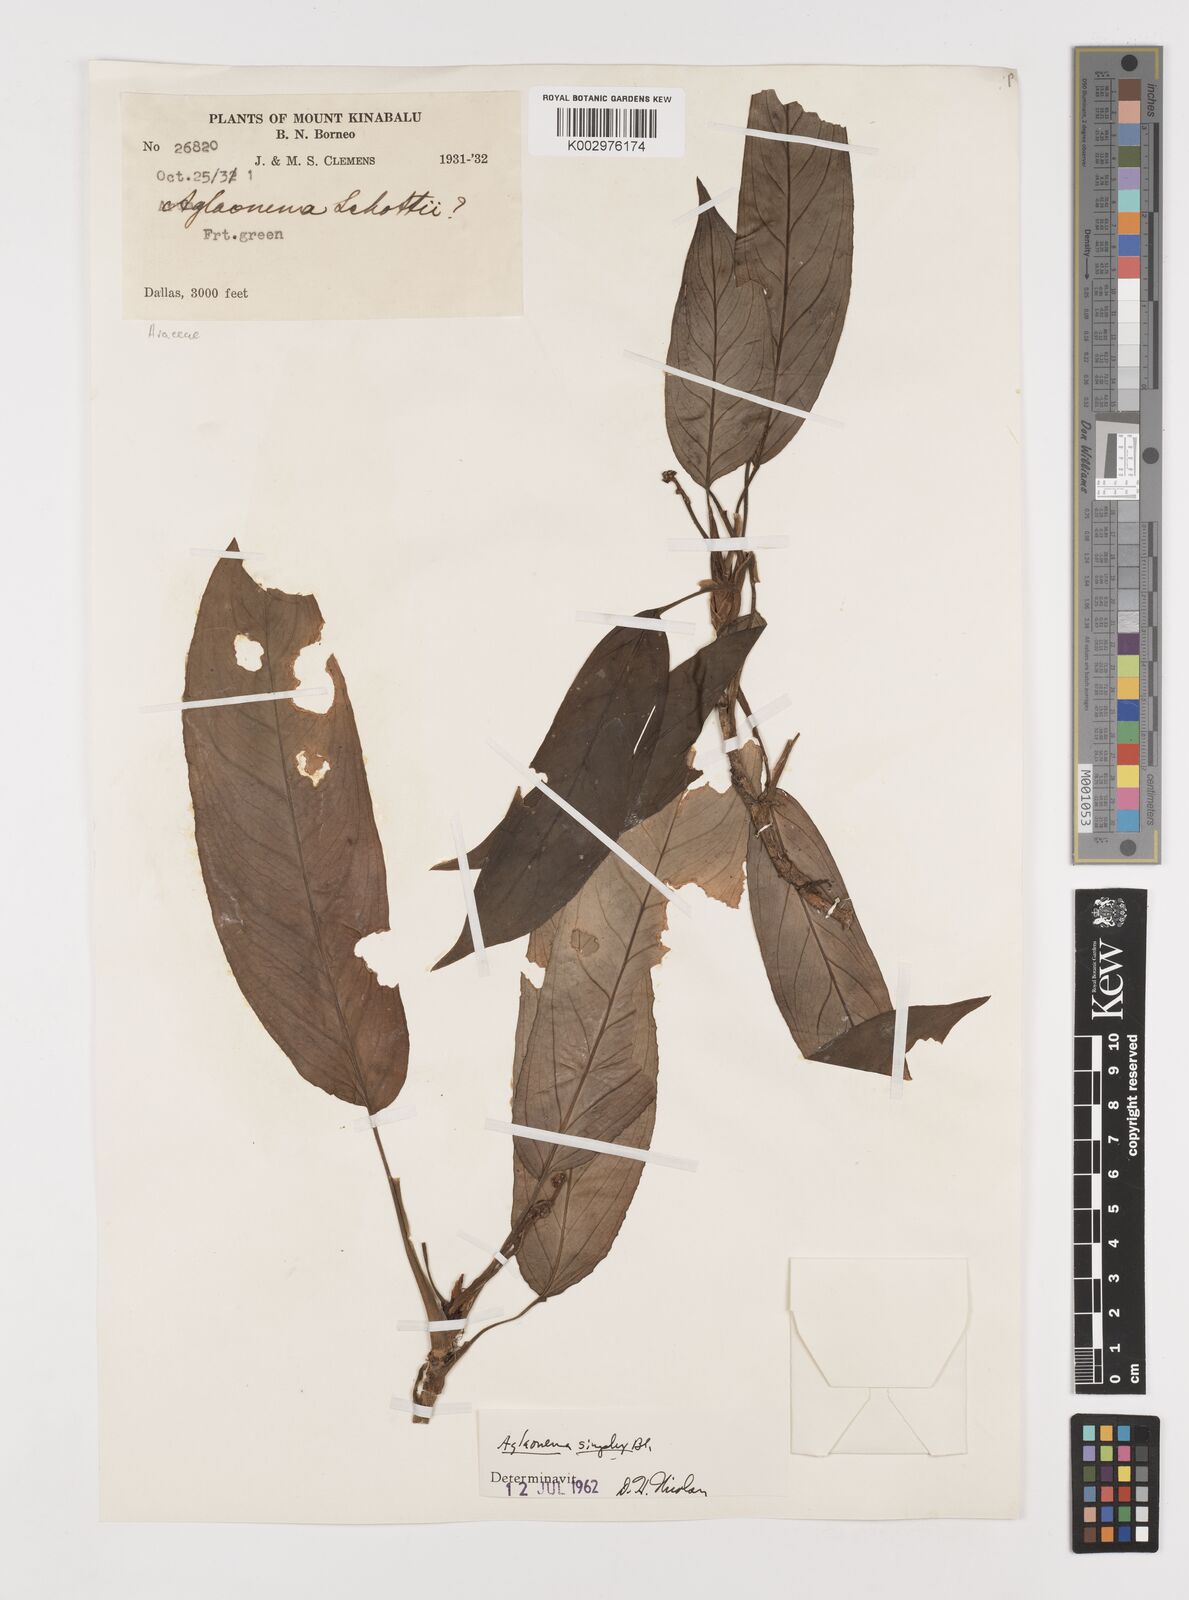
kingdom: Plantae
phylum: Tracheophyta
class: Liliopsida
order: Alismatales
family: Araceae
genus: Aglaonema
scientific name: Aglaonema simplex
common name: Malayan-sword
